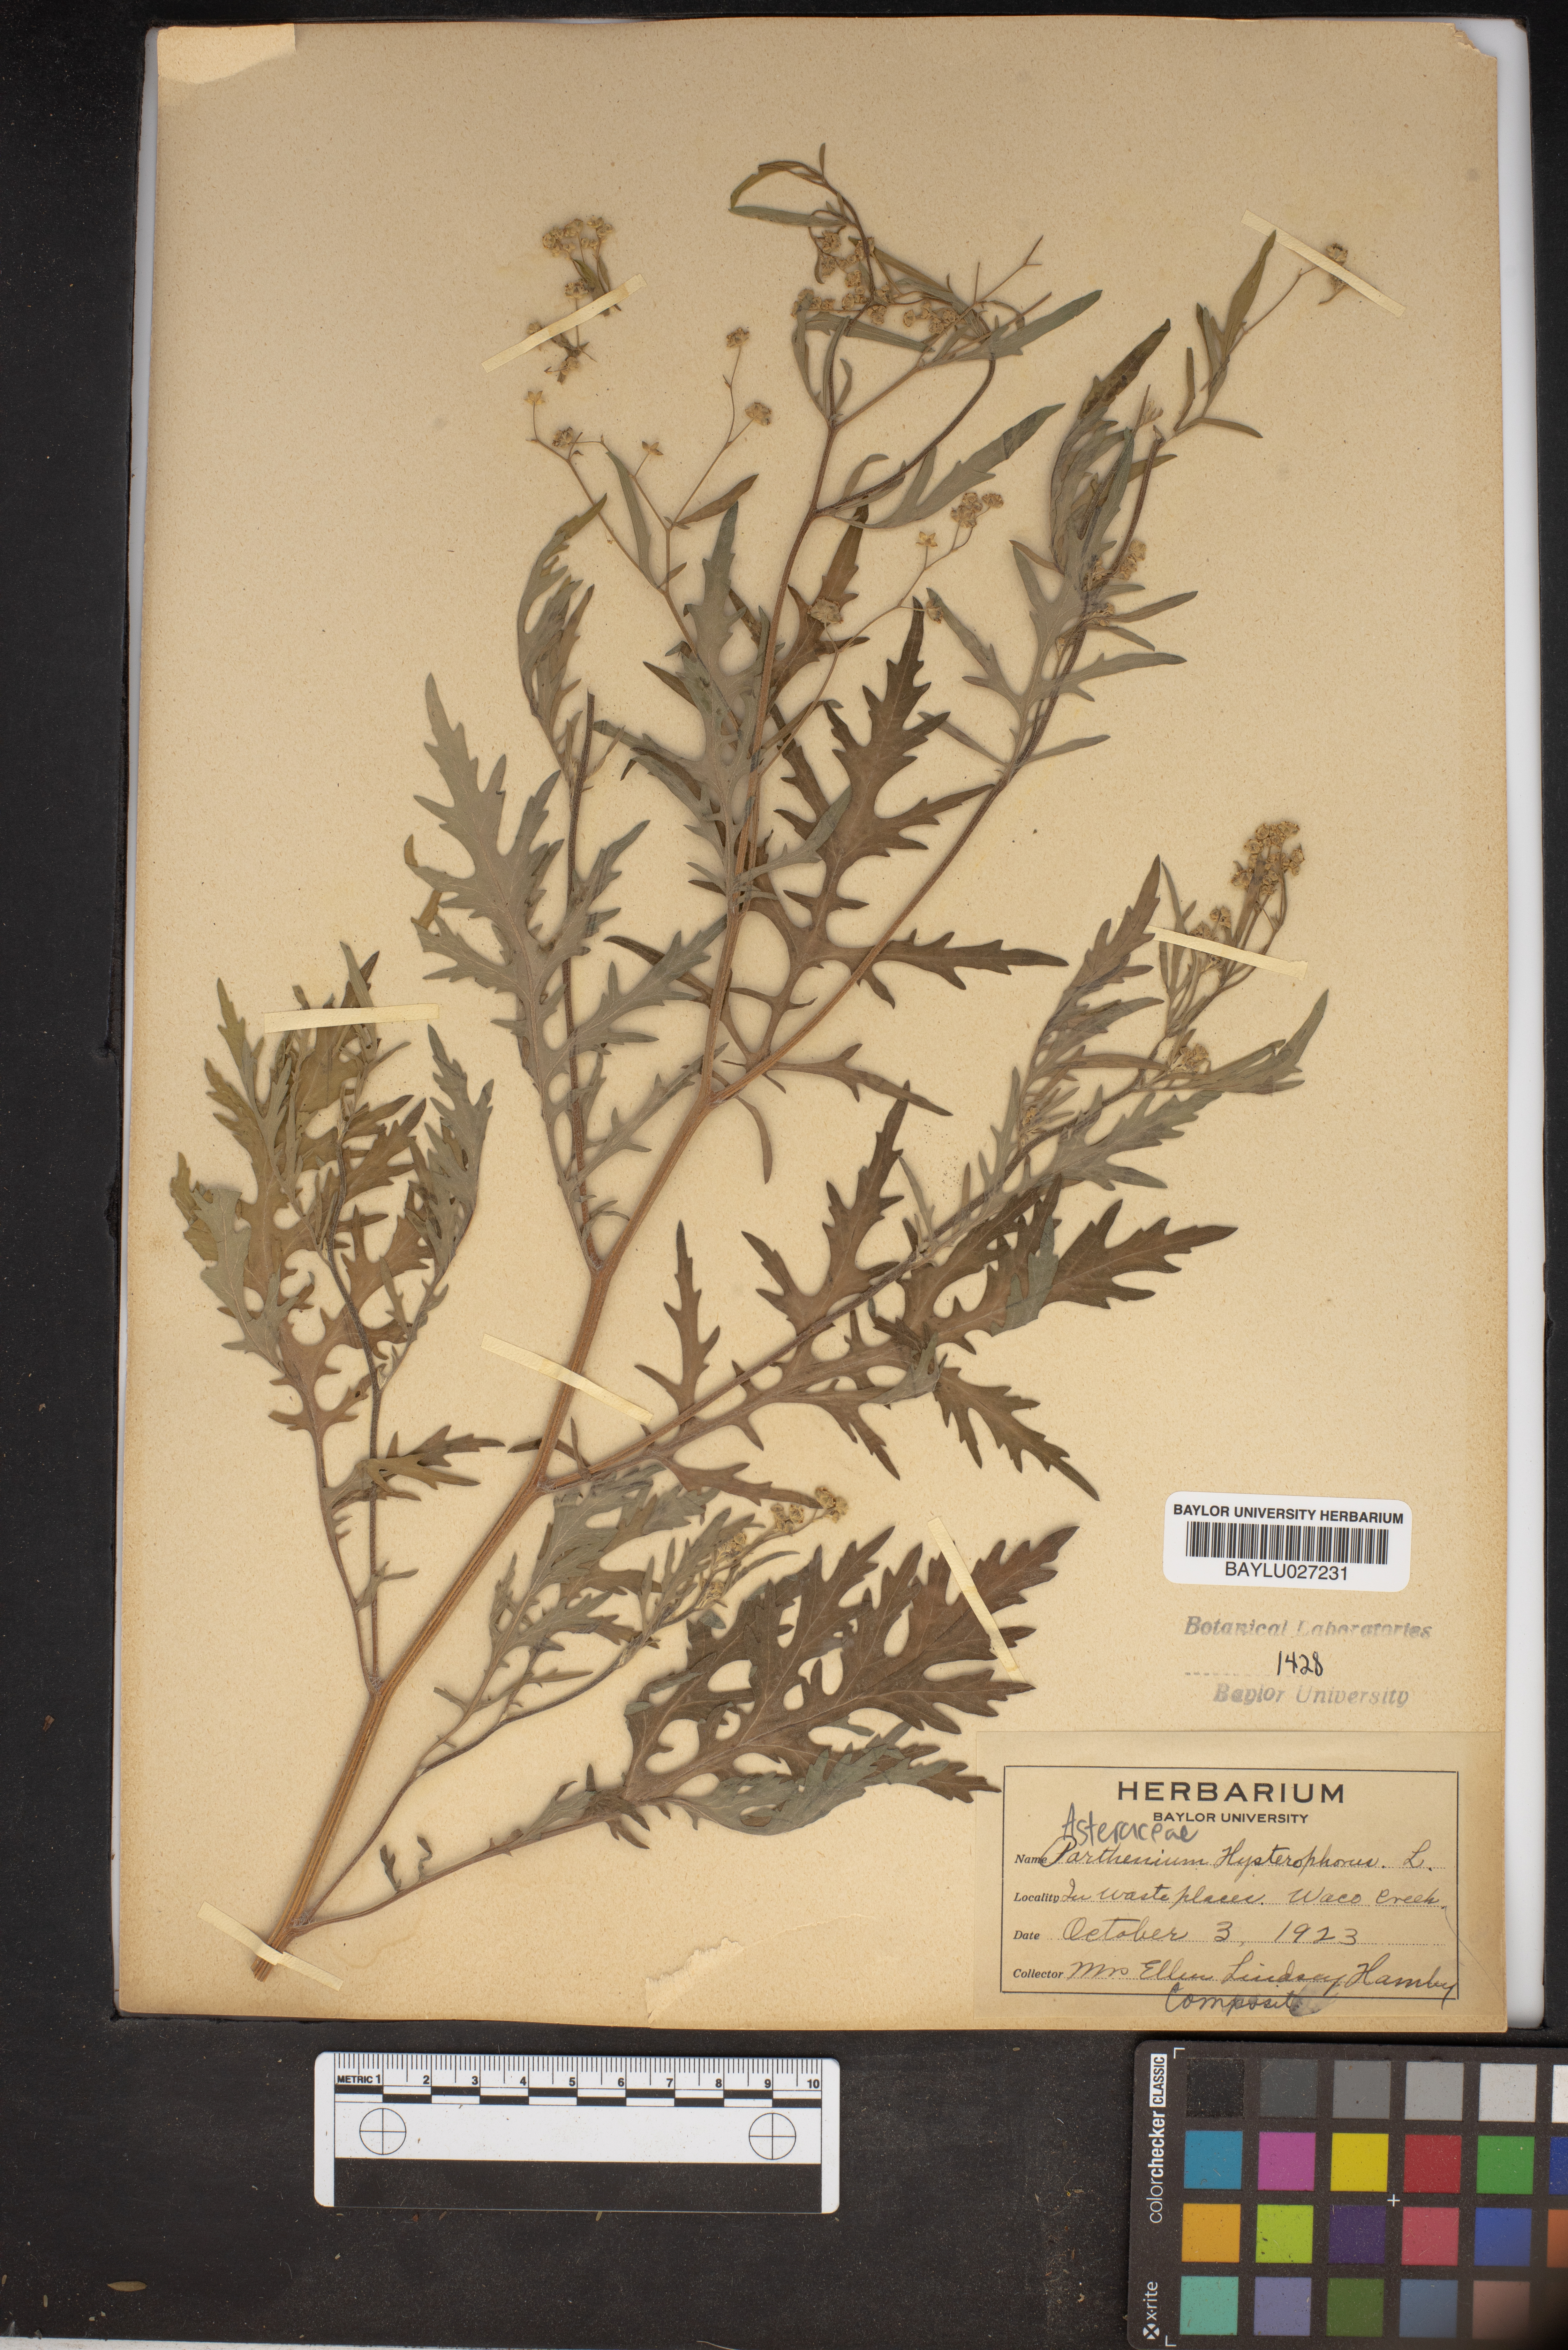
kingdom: Plantae
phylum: Tracheophyta
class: Magnoliopsida
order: Asterales
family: Asteraceae
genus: Parthenium
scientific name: Parthenium hysterophorus
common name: Santa maria feverfew
